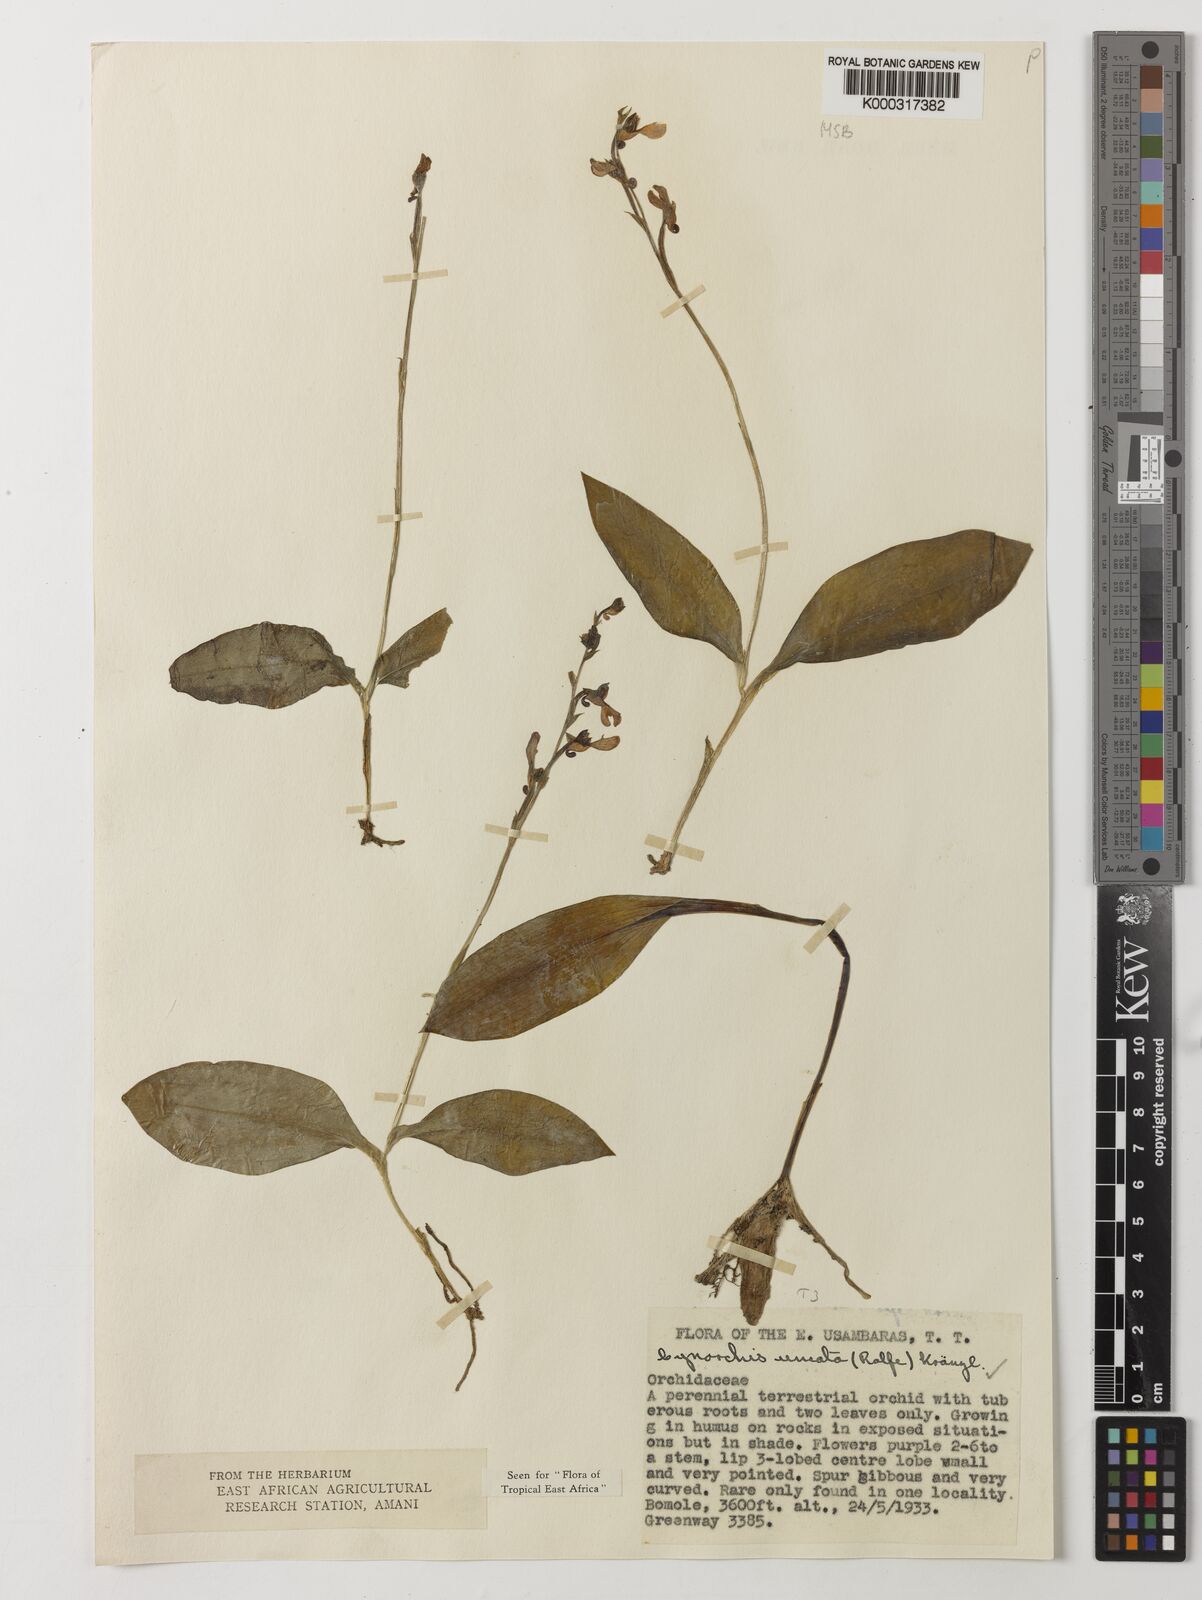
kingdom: Plantae
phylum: Tracheophyta
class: Liliopsida
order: Asparagales
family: Orchidaceae
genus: Cynorkis
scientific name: Cynorkis uncata
